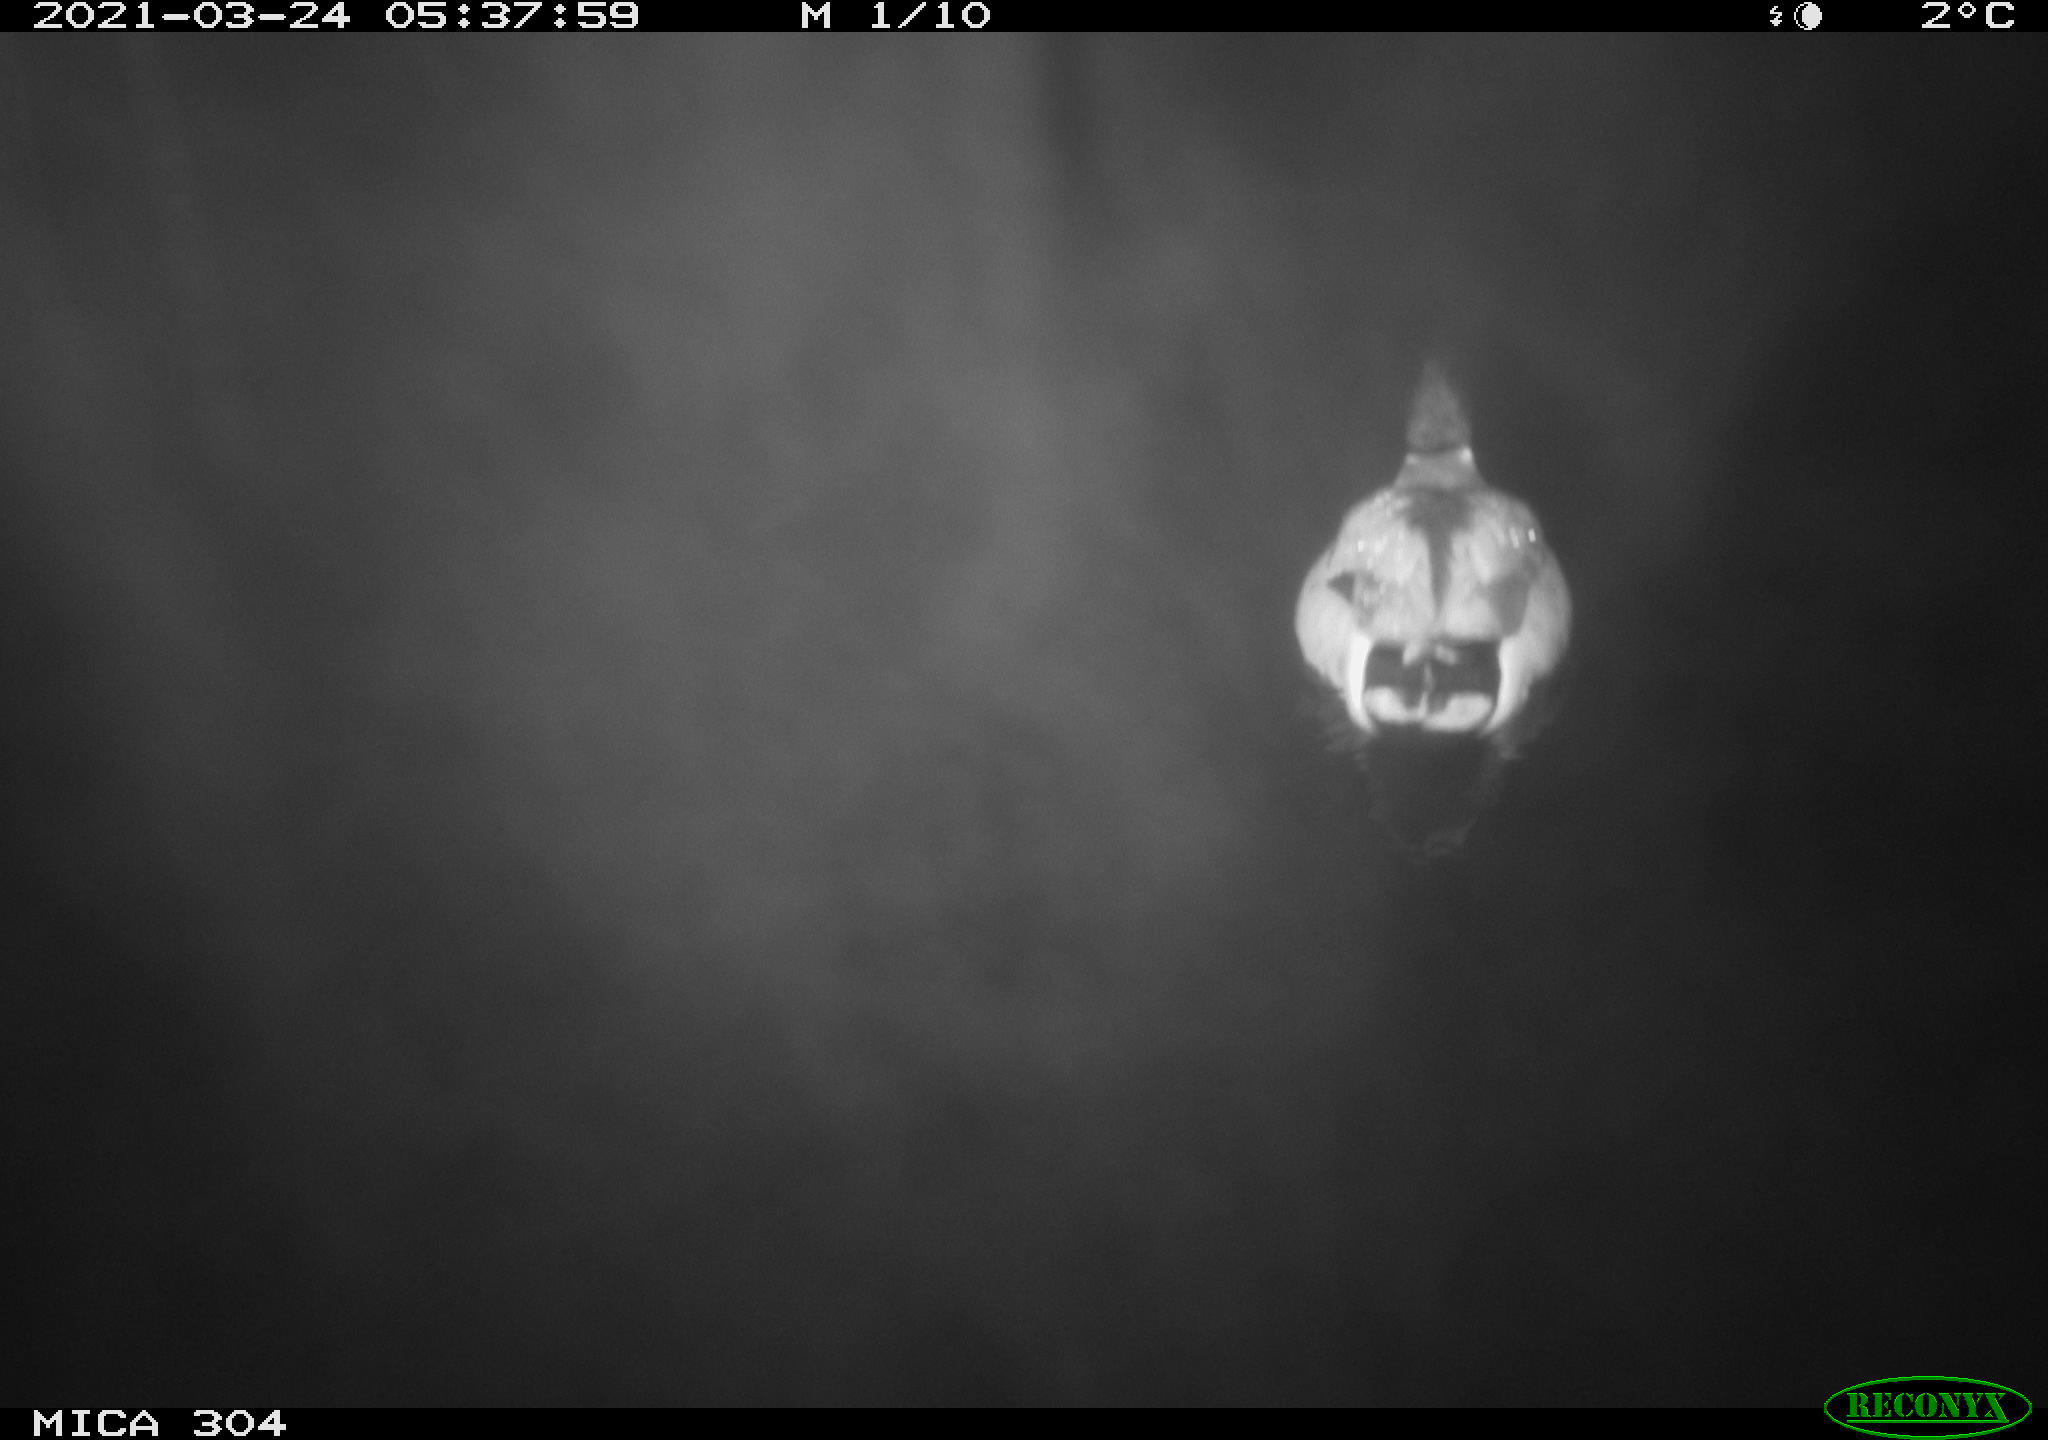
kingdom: Animalia
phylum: Chordata
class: Aves
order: Anseriformes
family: Anatidae
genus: Anas
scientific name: Anas platyrhynchos
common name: Mallard
